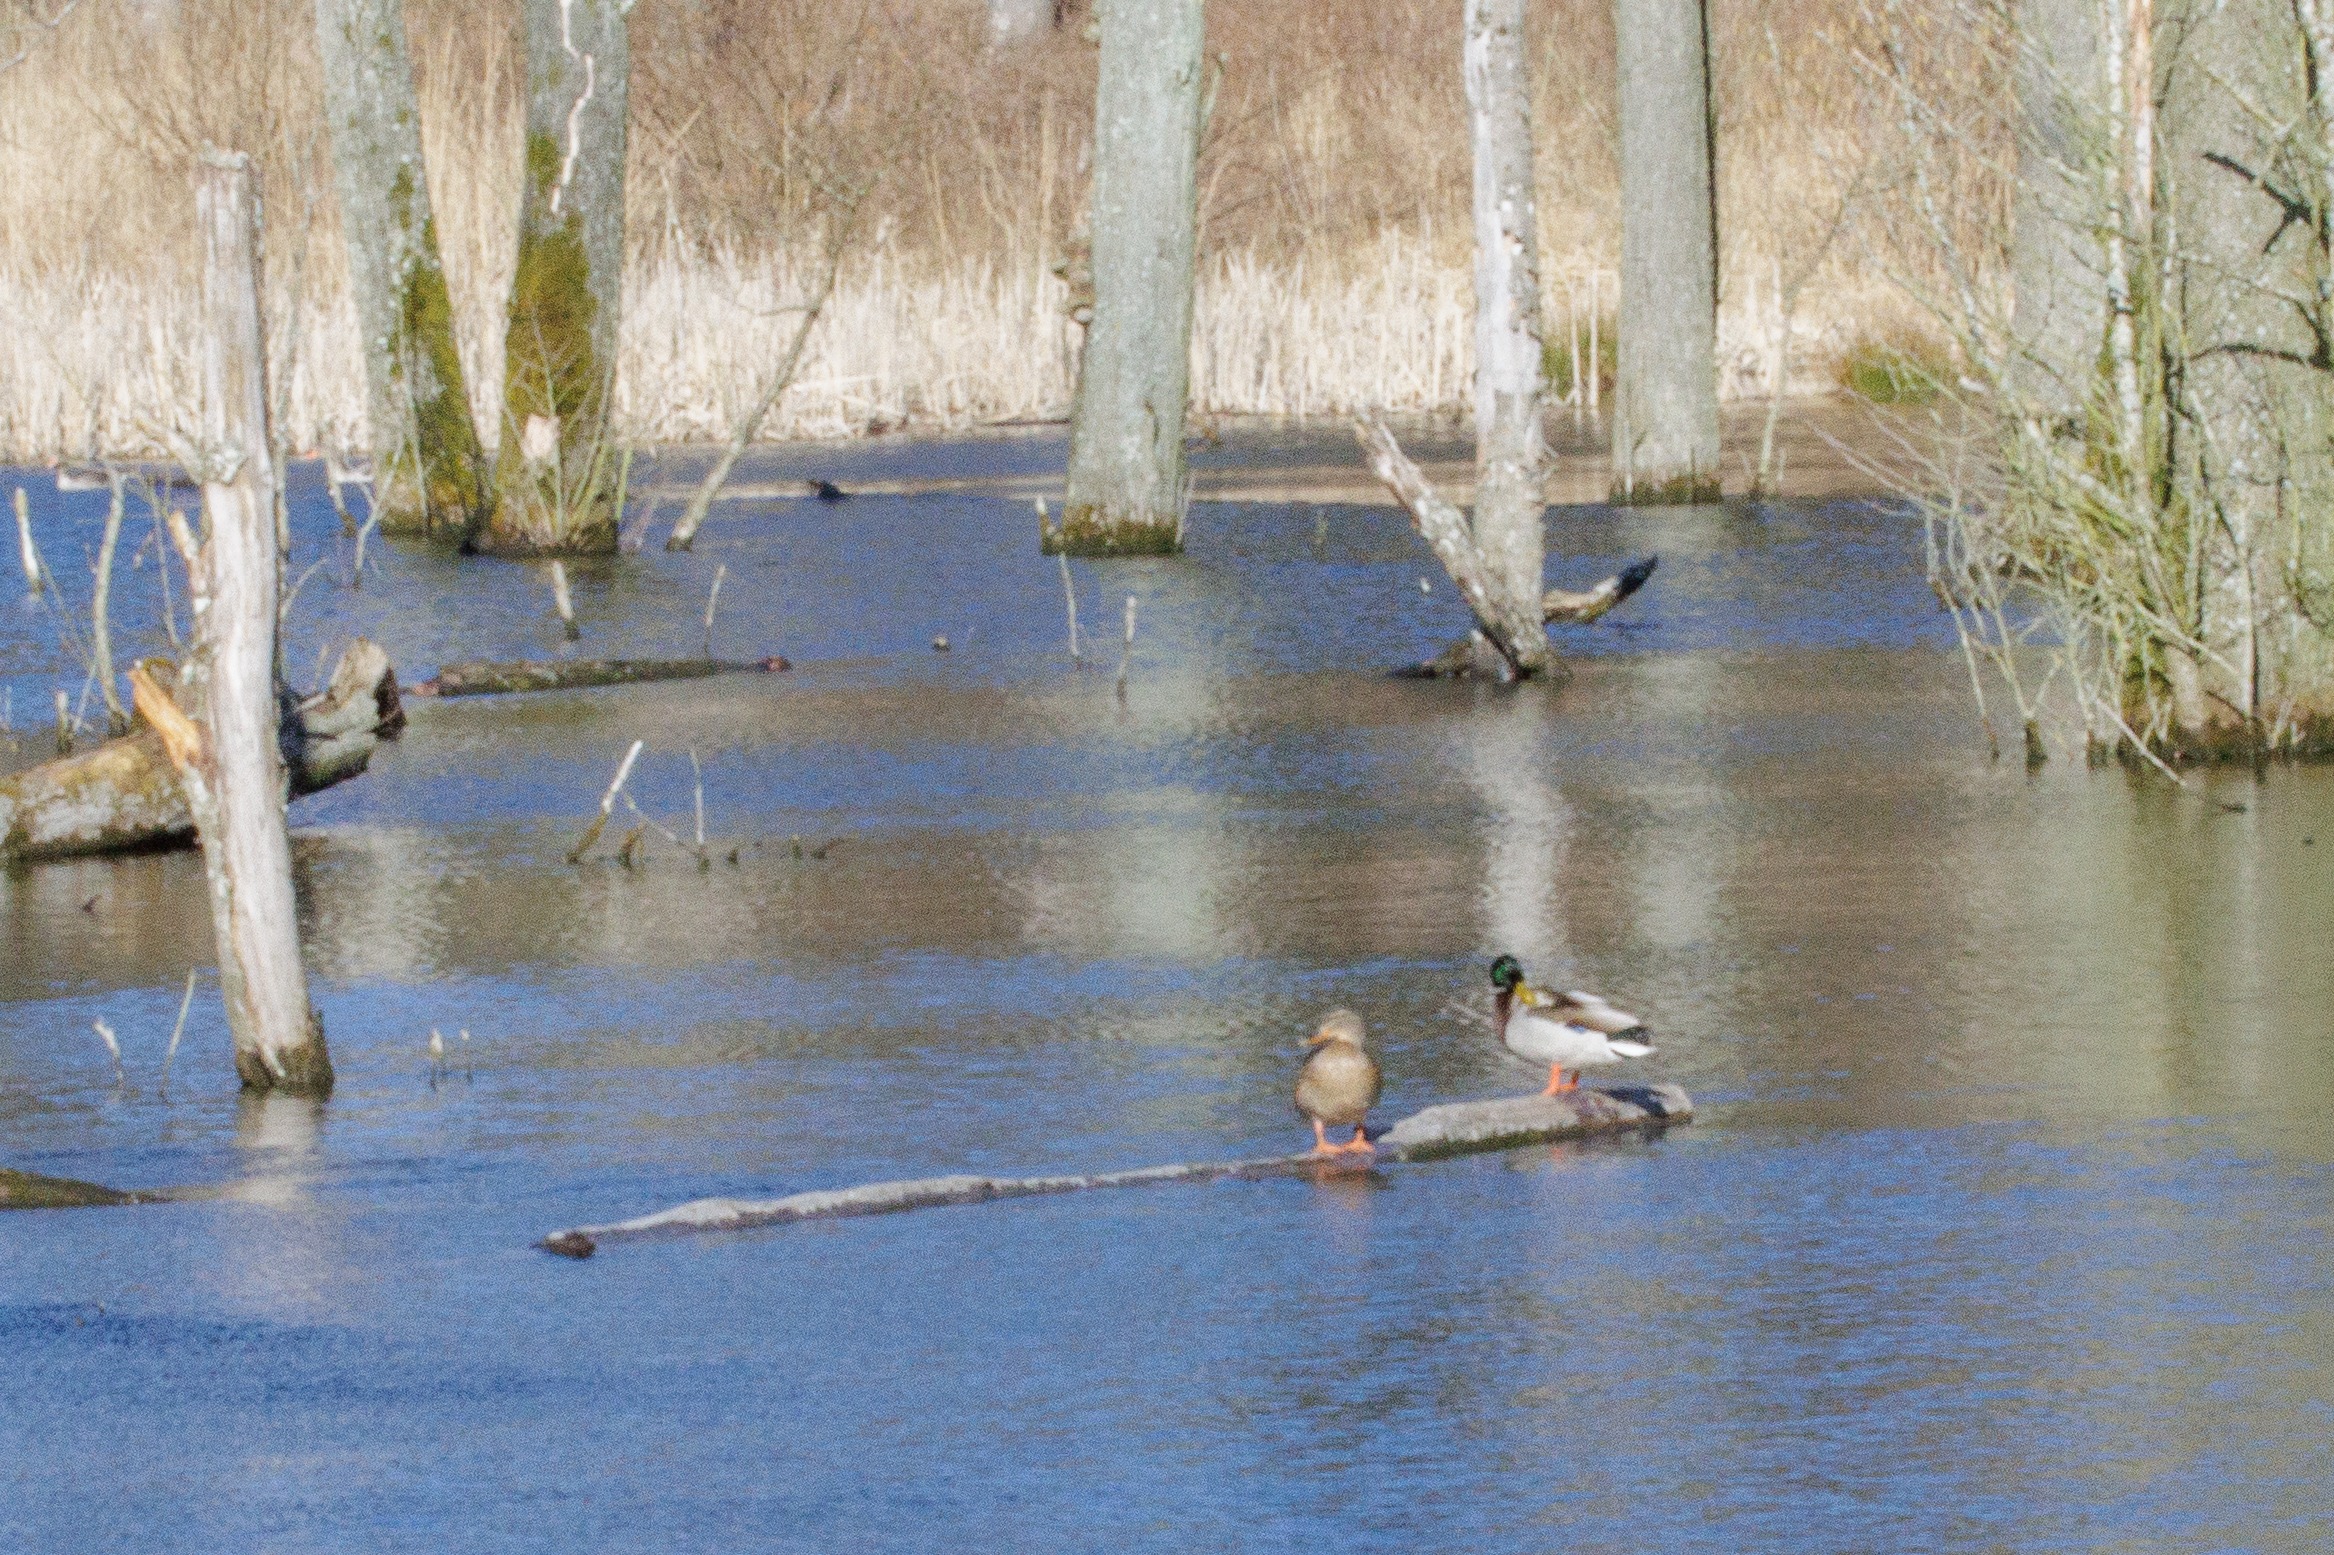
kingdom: Animalia
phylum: Chordata
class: Aves
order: Anseriformes
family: Anatidae
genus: Anas
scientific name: Anas platyrhynchos
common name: Gråand
